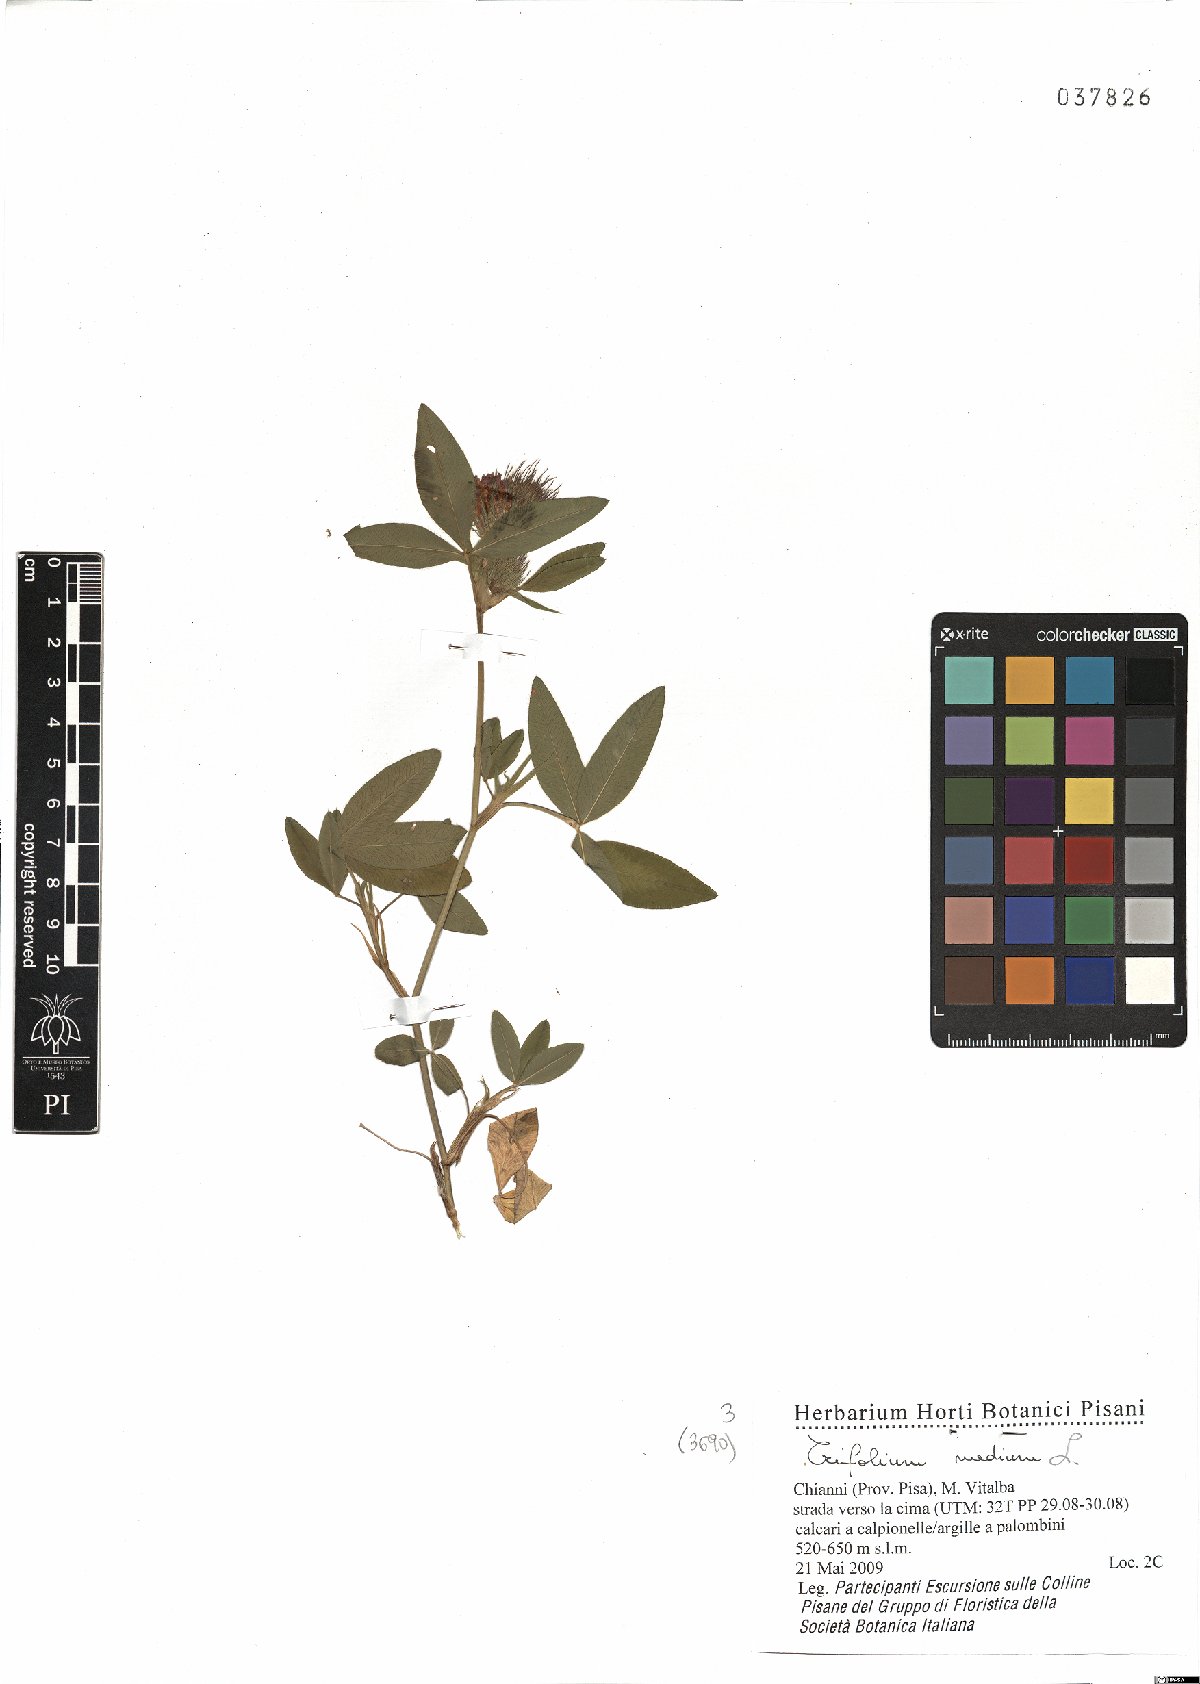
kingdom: Plantae
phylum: Tracheophyta
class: Magnoliopsida
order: Fabales
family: Fabaceae
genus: Trifolium
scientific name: Trifolium medium
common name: Zigzag clover
